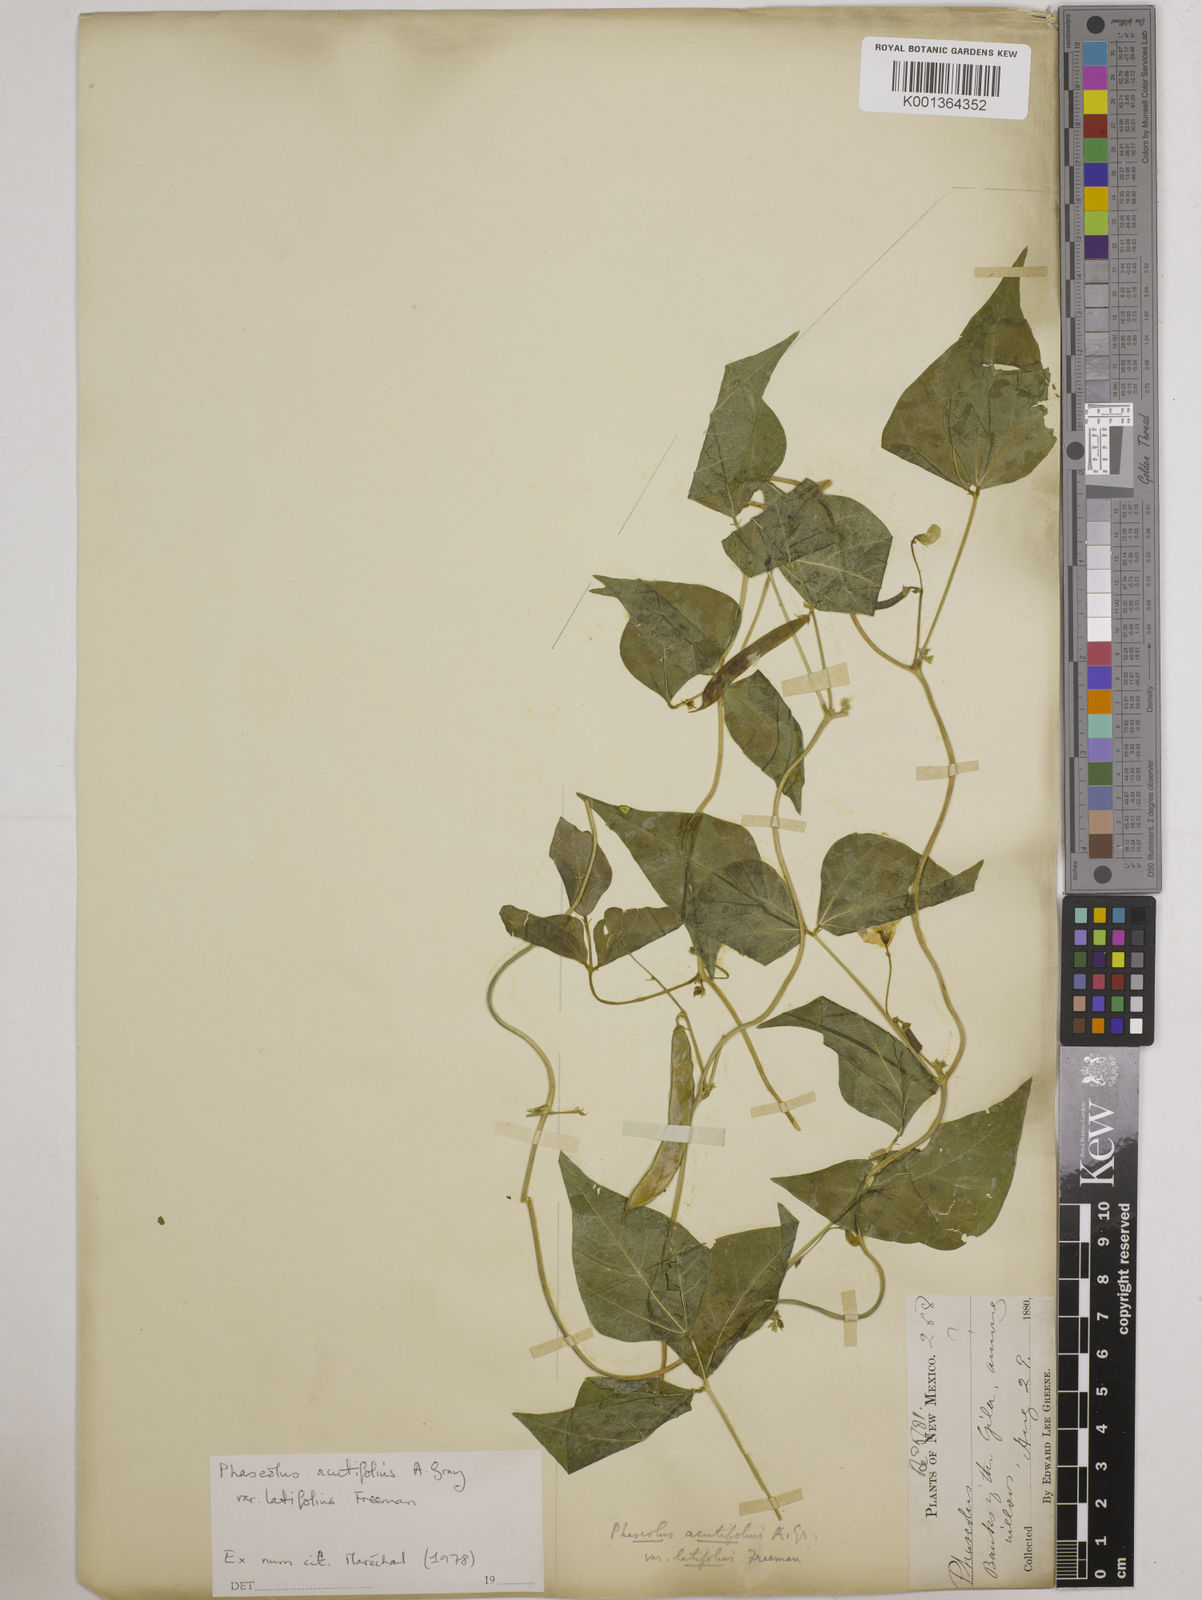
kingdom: Plantae
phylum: Tracheophyta
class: Magnoliopsida
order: Fabales
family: Fabaceae
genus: Phaseolus
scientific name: Phaseolus
